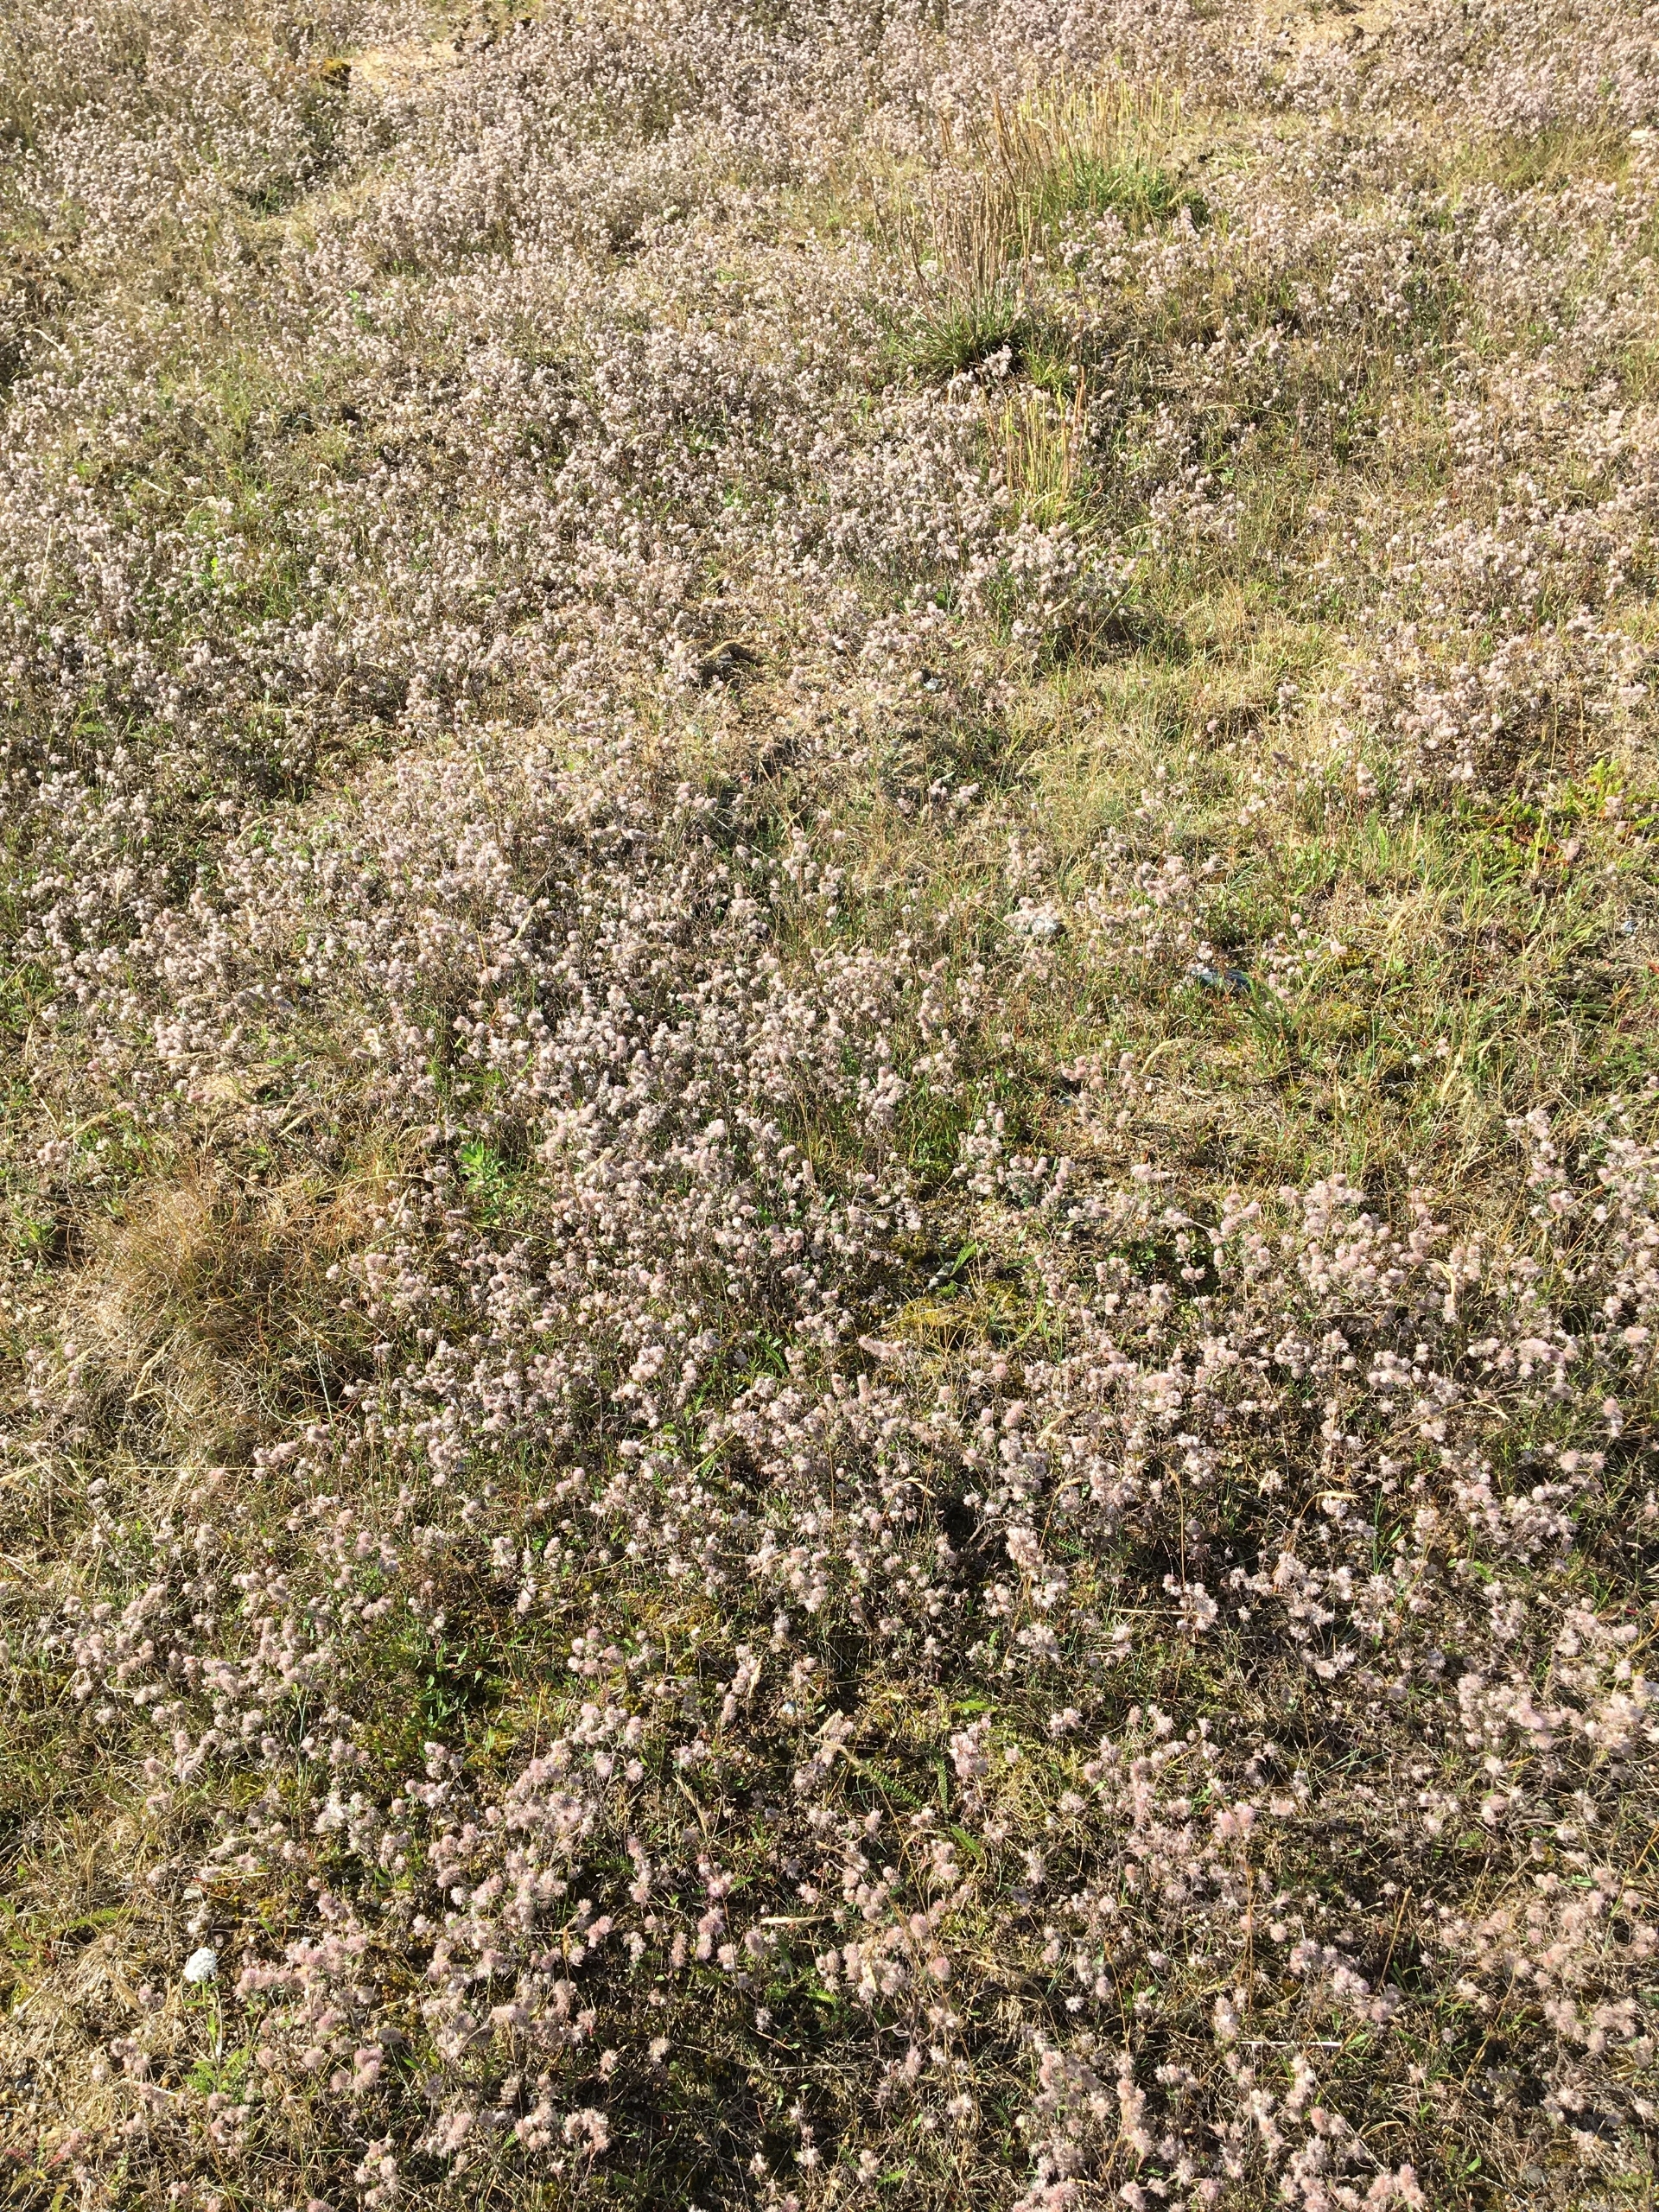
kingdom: Plantae
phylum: Tracheophyta
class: Magnoliopsida
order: Fabales
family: Fabaceae
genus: Trifolium
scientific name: Trifolium arvense
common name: Hare-kløver
